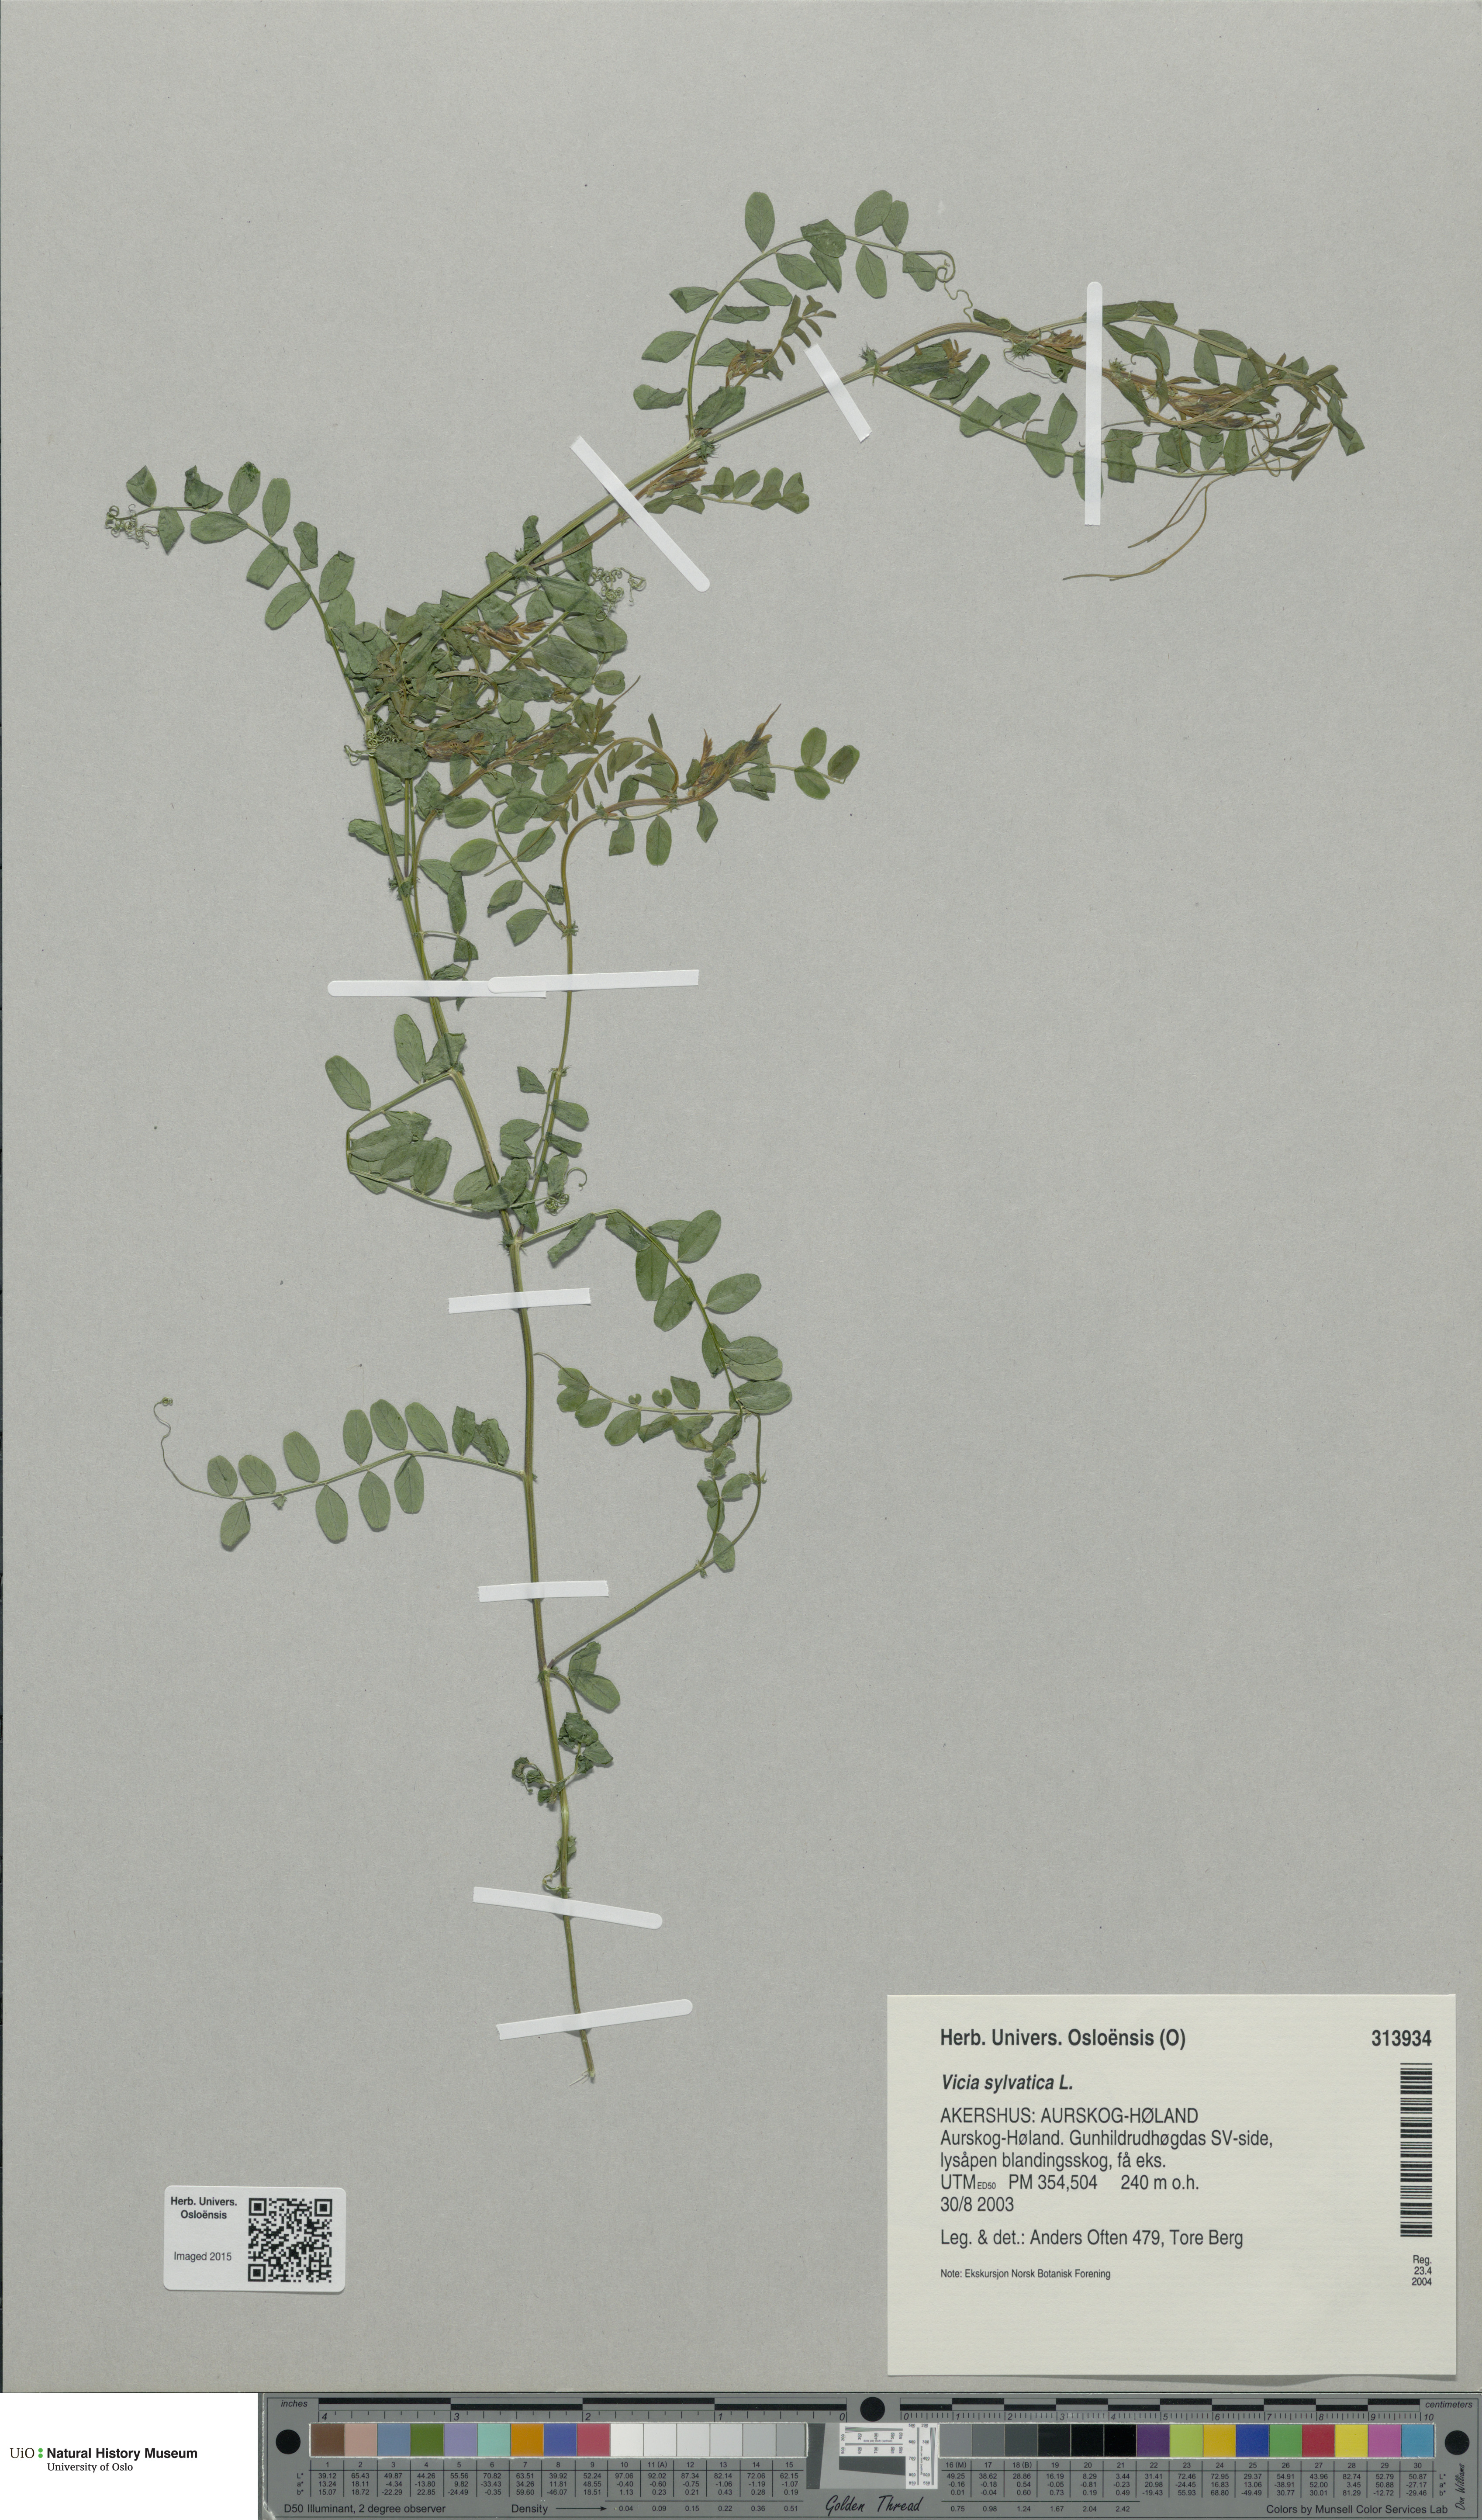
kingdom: Plantae
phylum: Tracheophyta
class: Magnoliopsida
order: Fabales
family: Fabaceae
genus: Vicia
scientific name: Vicia sylvatica
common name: Wood vetch
